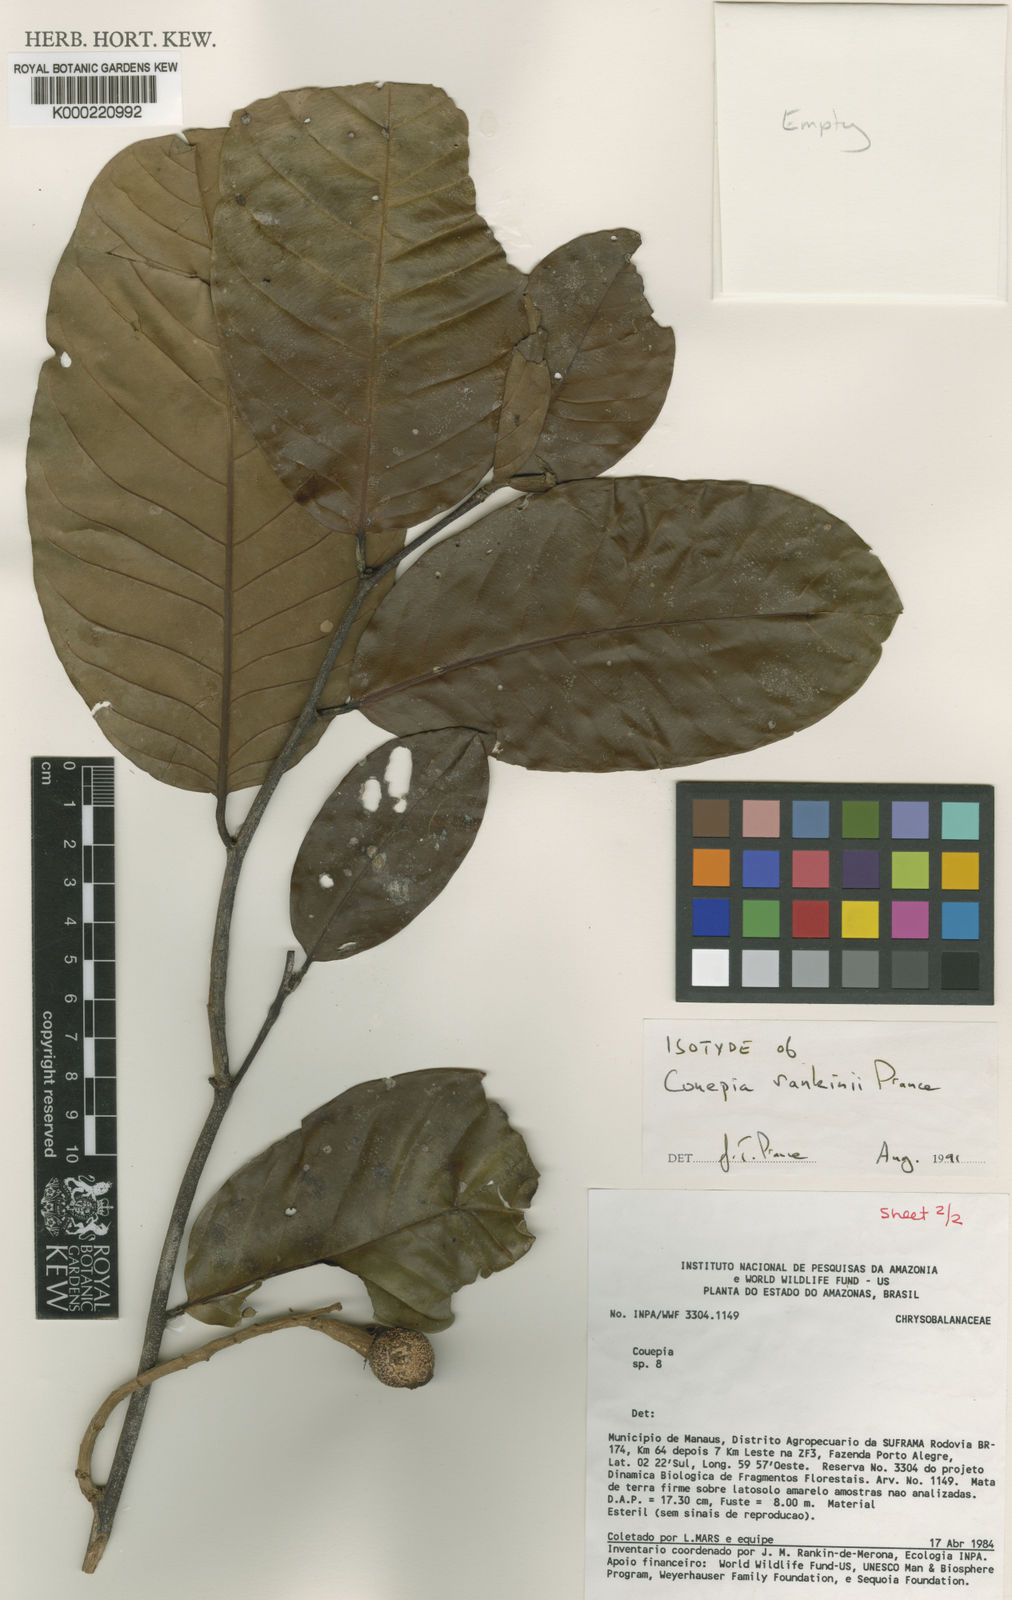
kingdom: Plantae
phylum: Tracheophyta
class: Magnoliopsida
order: Malpighiales
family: Chrysobalanaceae
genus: Couepia
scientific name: Couepia rankiniae
